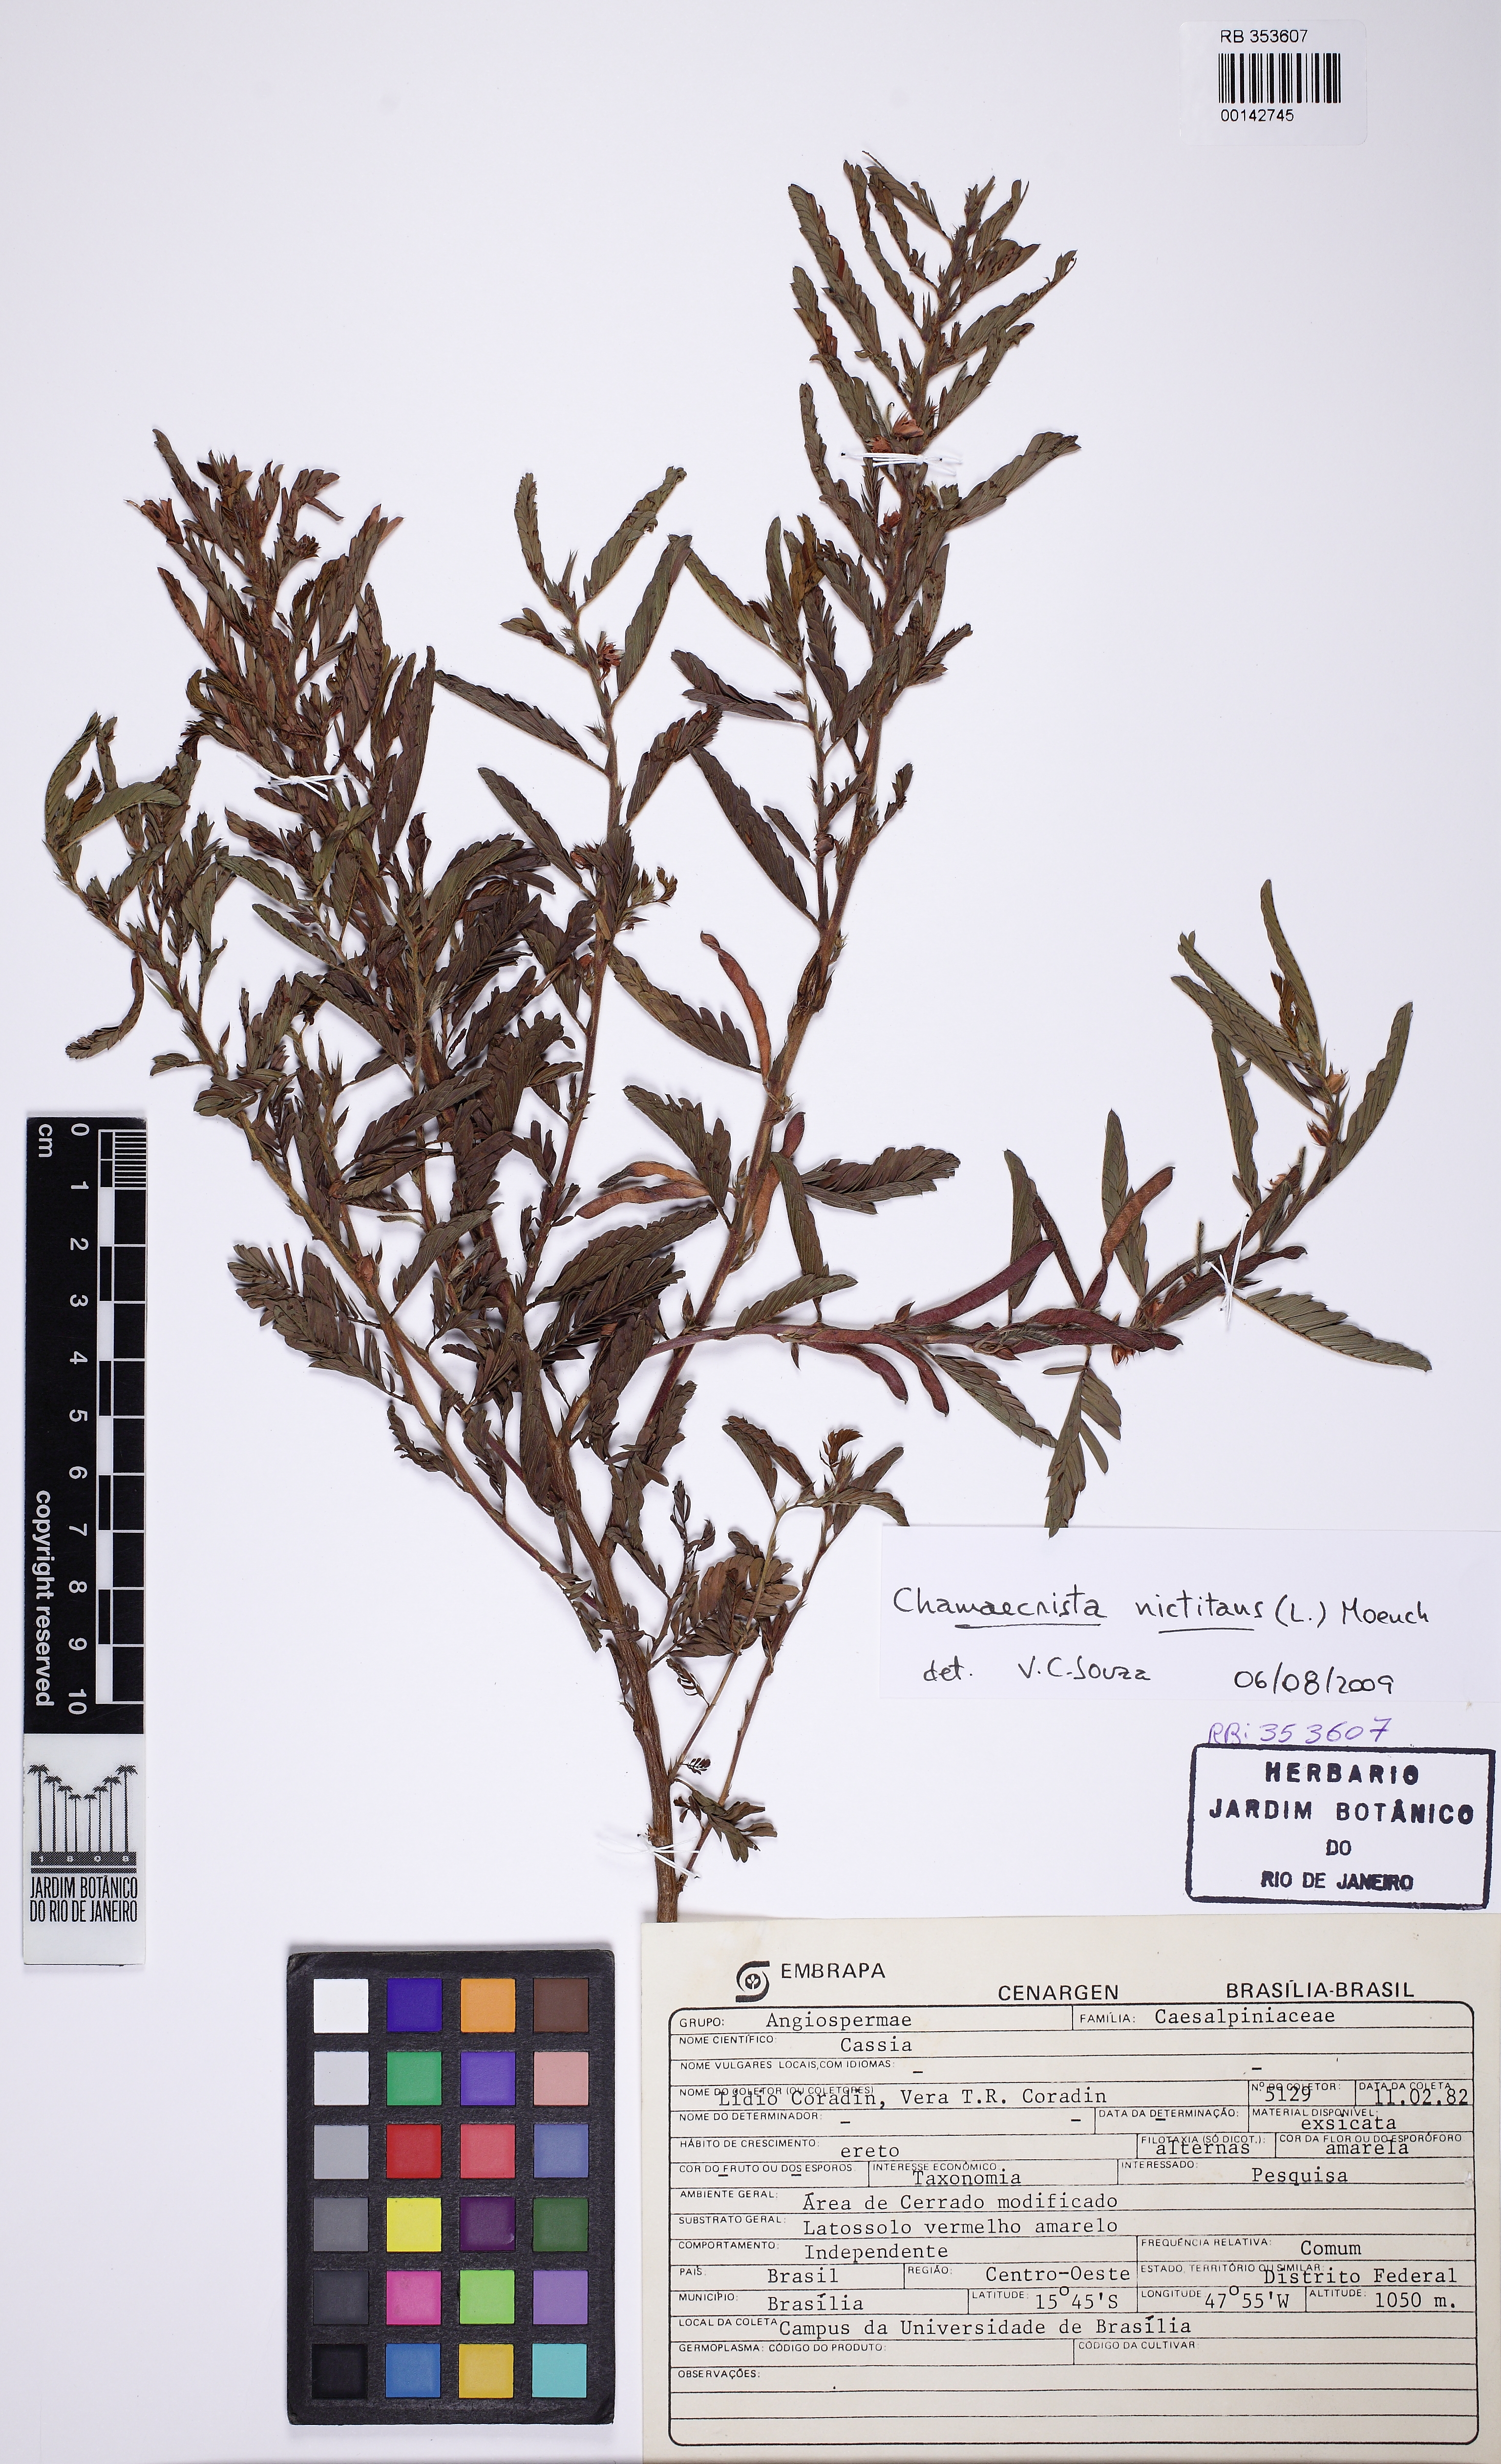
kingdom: Plantae
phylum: Tracheophyta
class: Magnoliopsida
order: Fabales
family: Fabaceae
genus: Chamaecrista
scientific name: Chamaecrista nictitans
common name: Sensitive cassia
